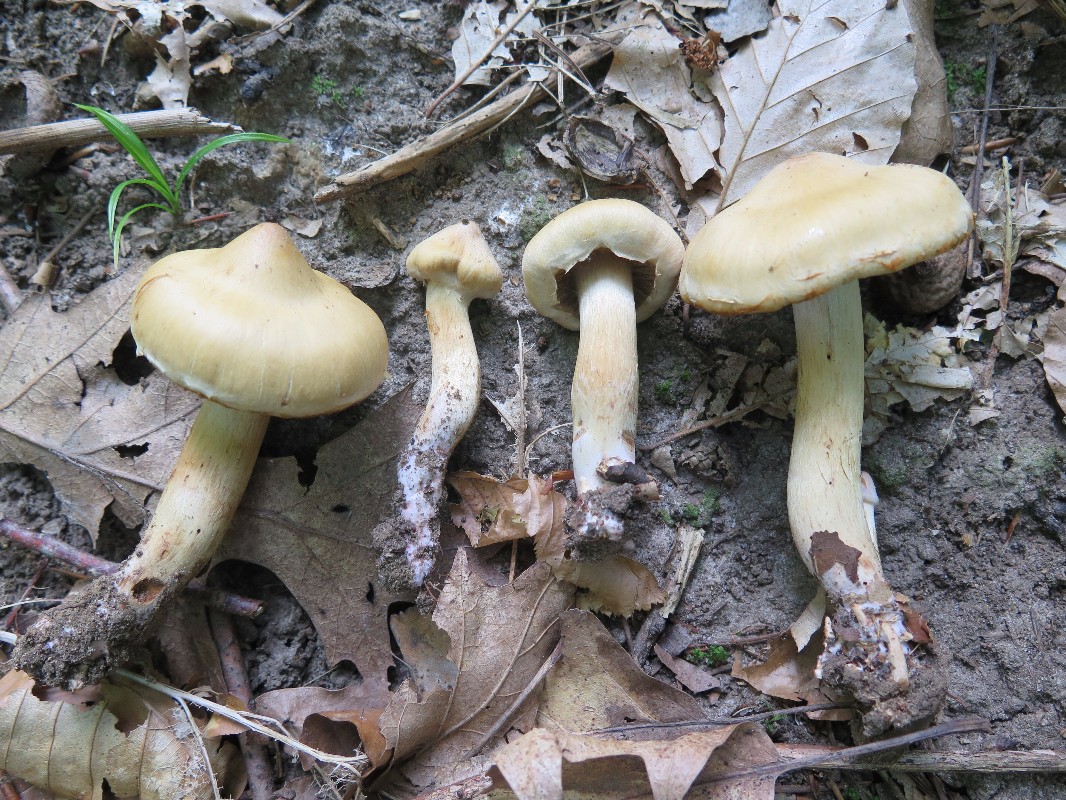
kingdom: Fungi
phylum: Basidiomycota
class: Agaricomycetes
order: Agaricales
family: Cortinariaceae
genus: Cortinarius
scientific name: Cortinarius roseonudipes
